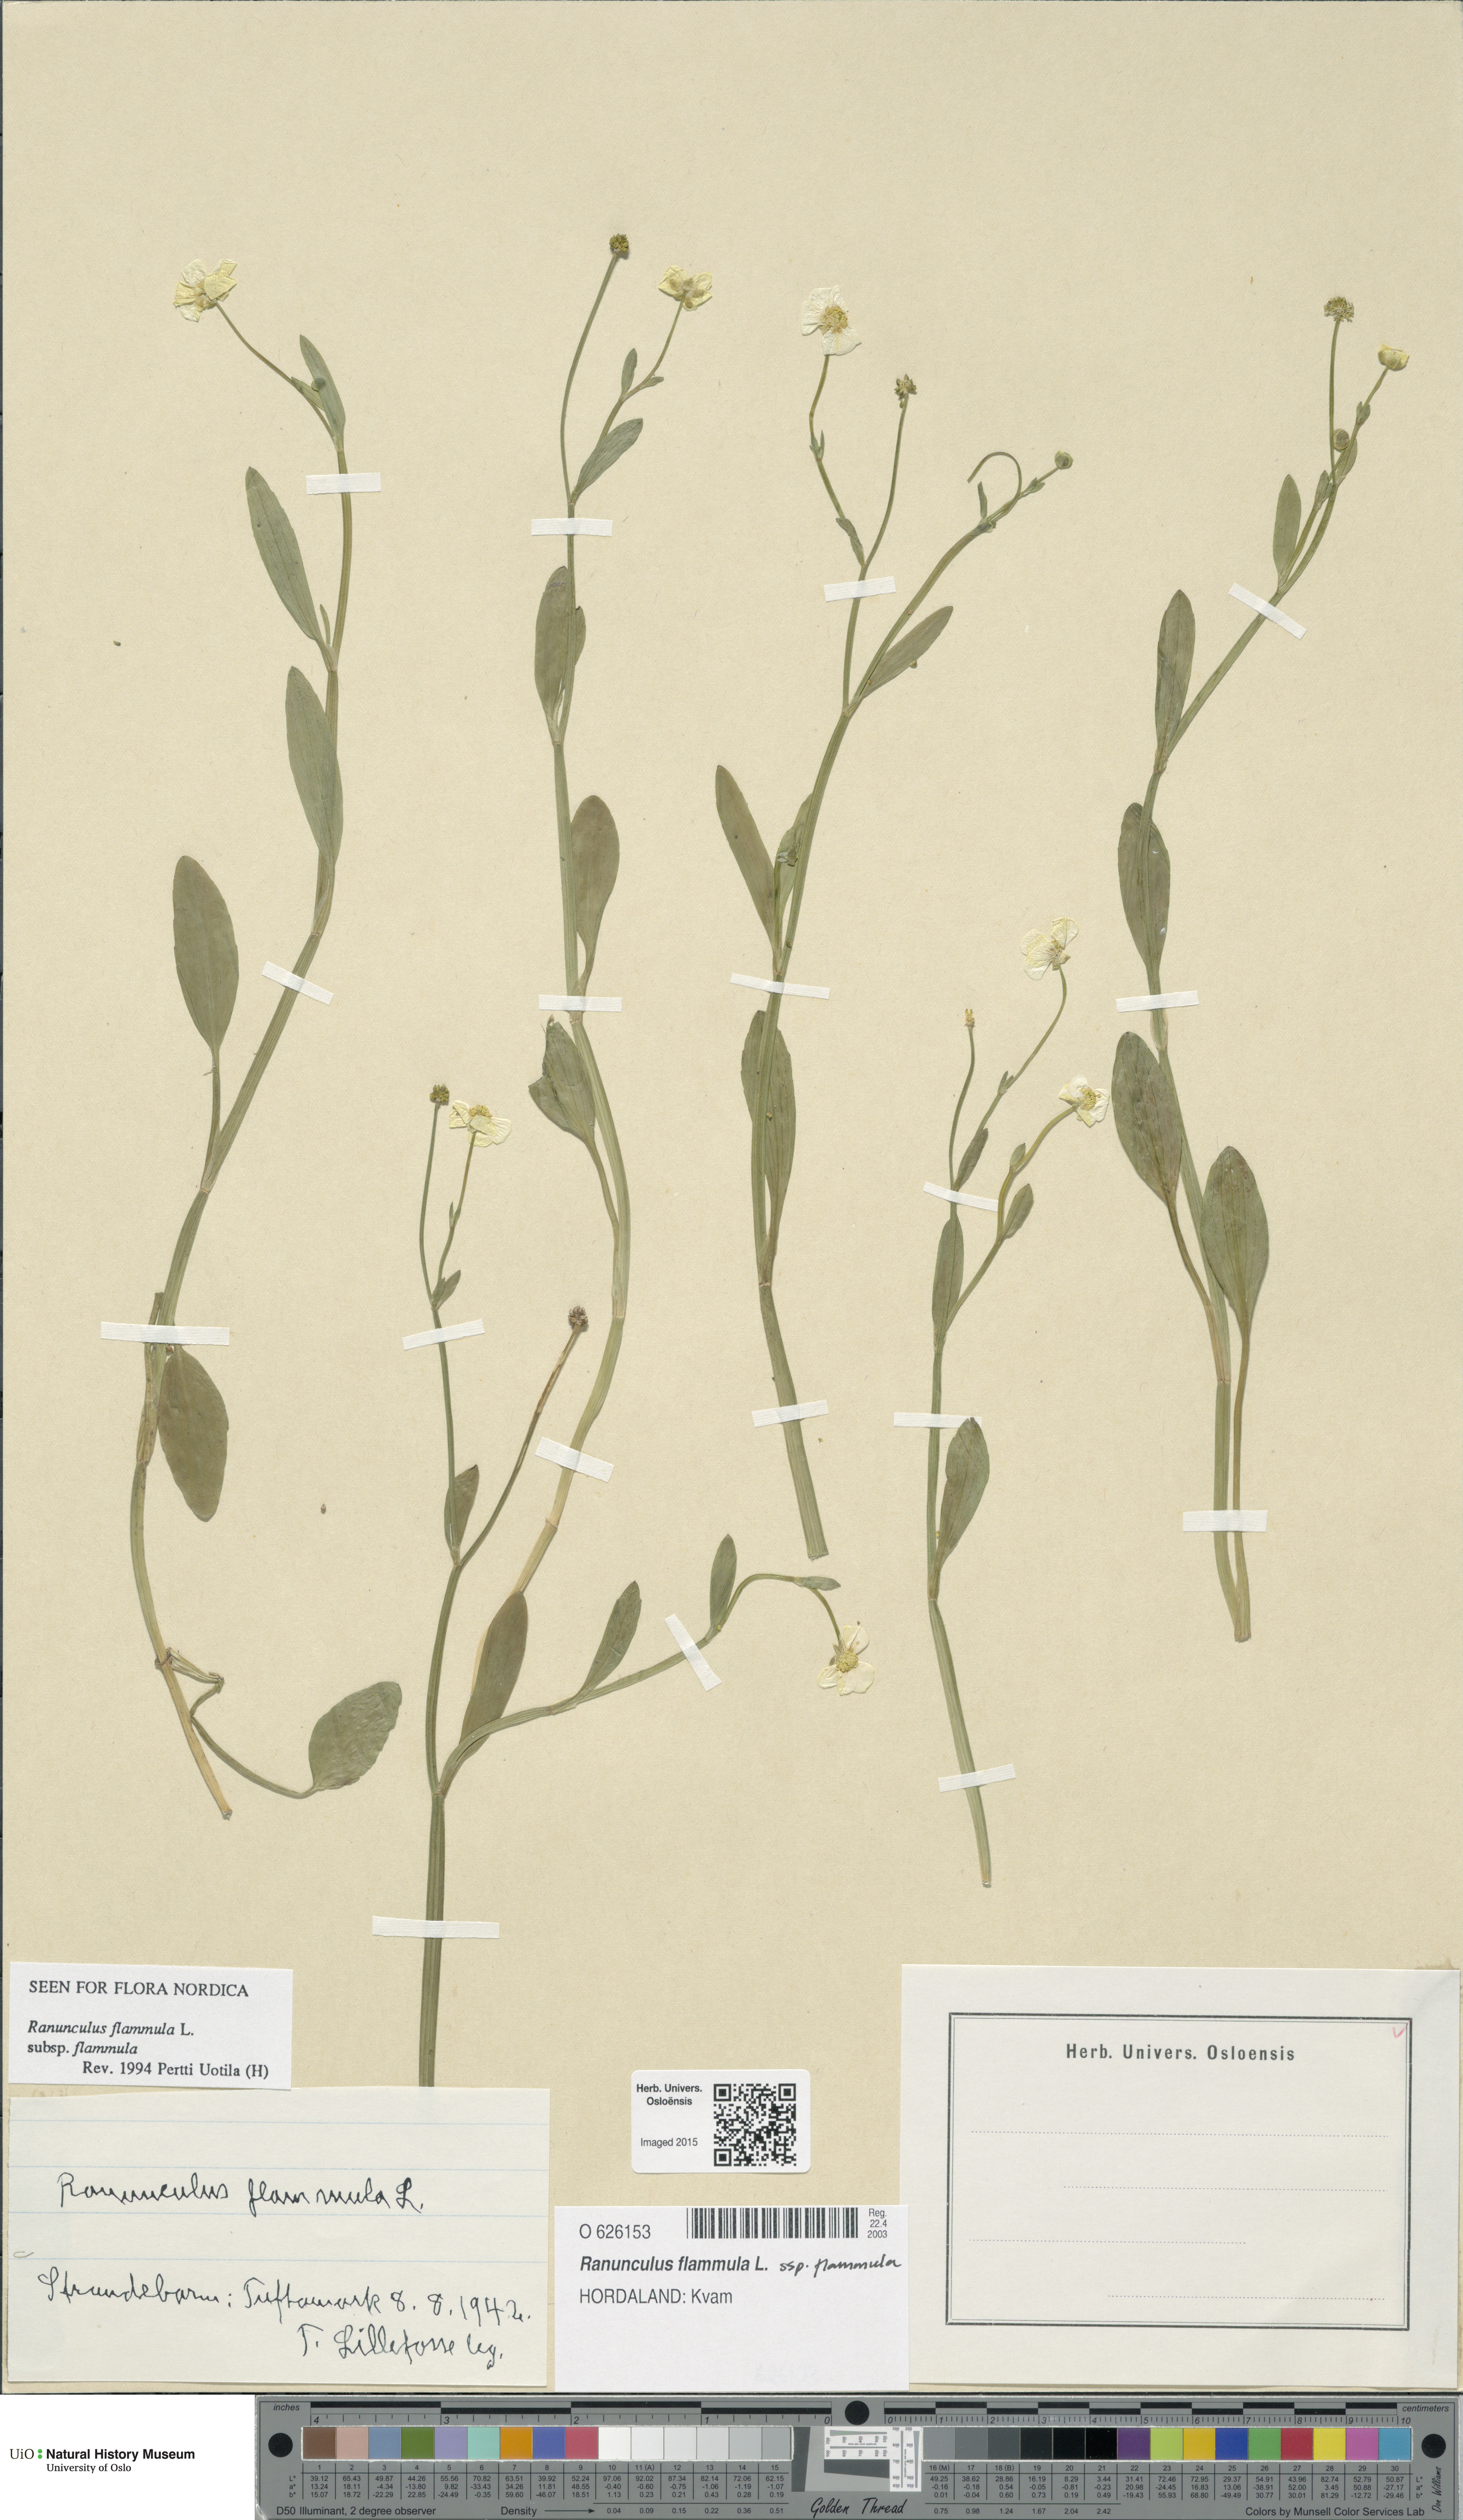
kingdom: Plantae
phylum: Tracheophyta
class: Magnoliopsida
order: Ranunculales
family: Ranunculaceae
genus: Ranunculus
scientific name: Ranunculus flammula
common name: Lesser spearwort
